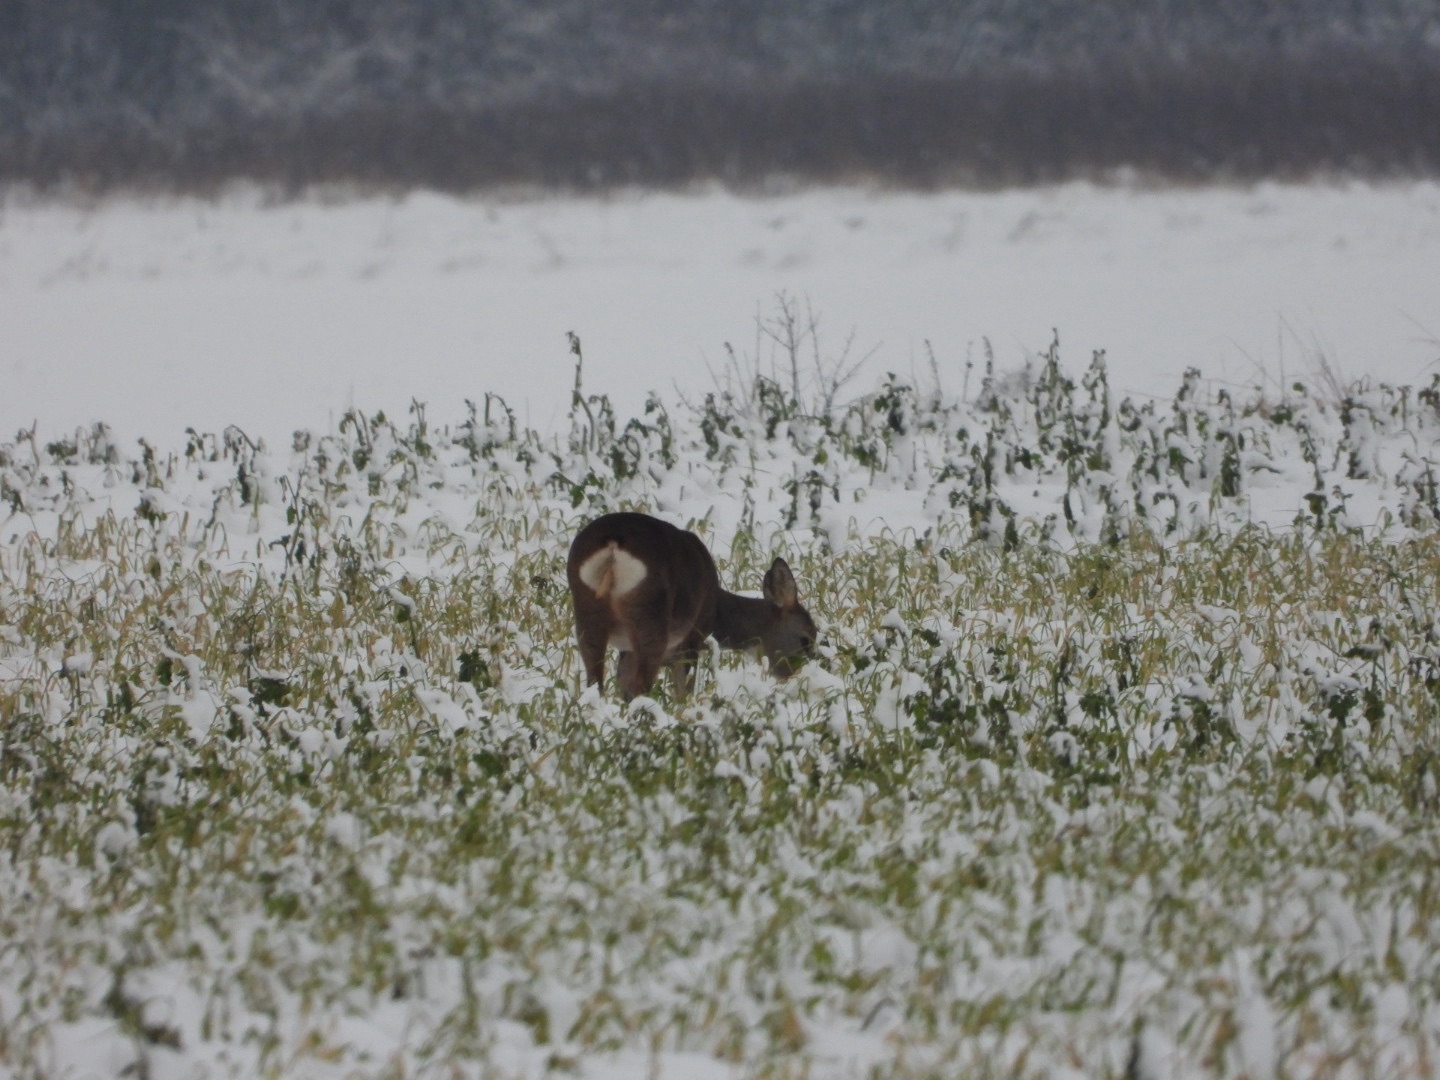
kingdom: Animalia
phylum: Chordata
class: Mammalia
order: Artiodactyla
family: Cervidae
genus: Capreolus
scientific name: Capreolus capreolus
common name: Rådyr
